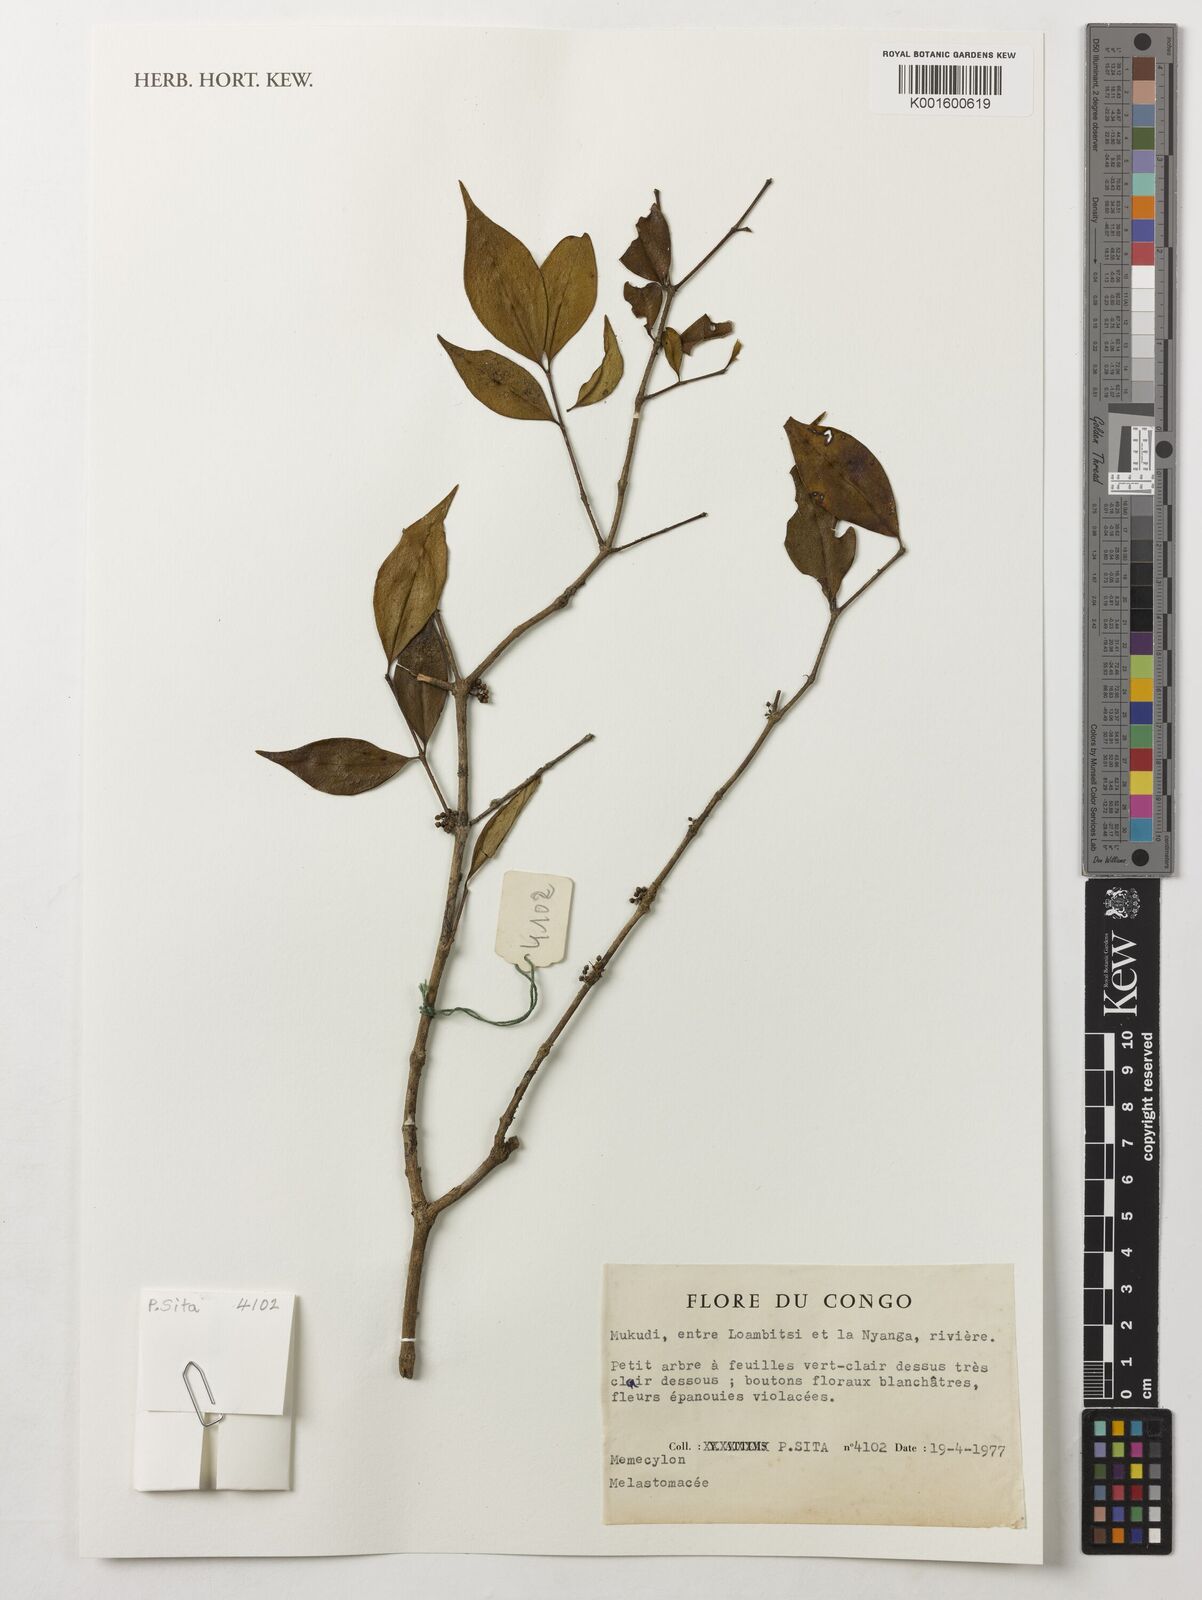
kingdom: Plantae
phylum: Tracheophyta
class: Magnoliopsida
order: Myrtales
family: Melastomataceae
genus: Memecylon
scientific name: Memecylon
